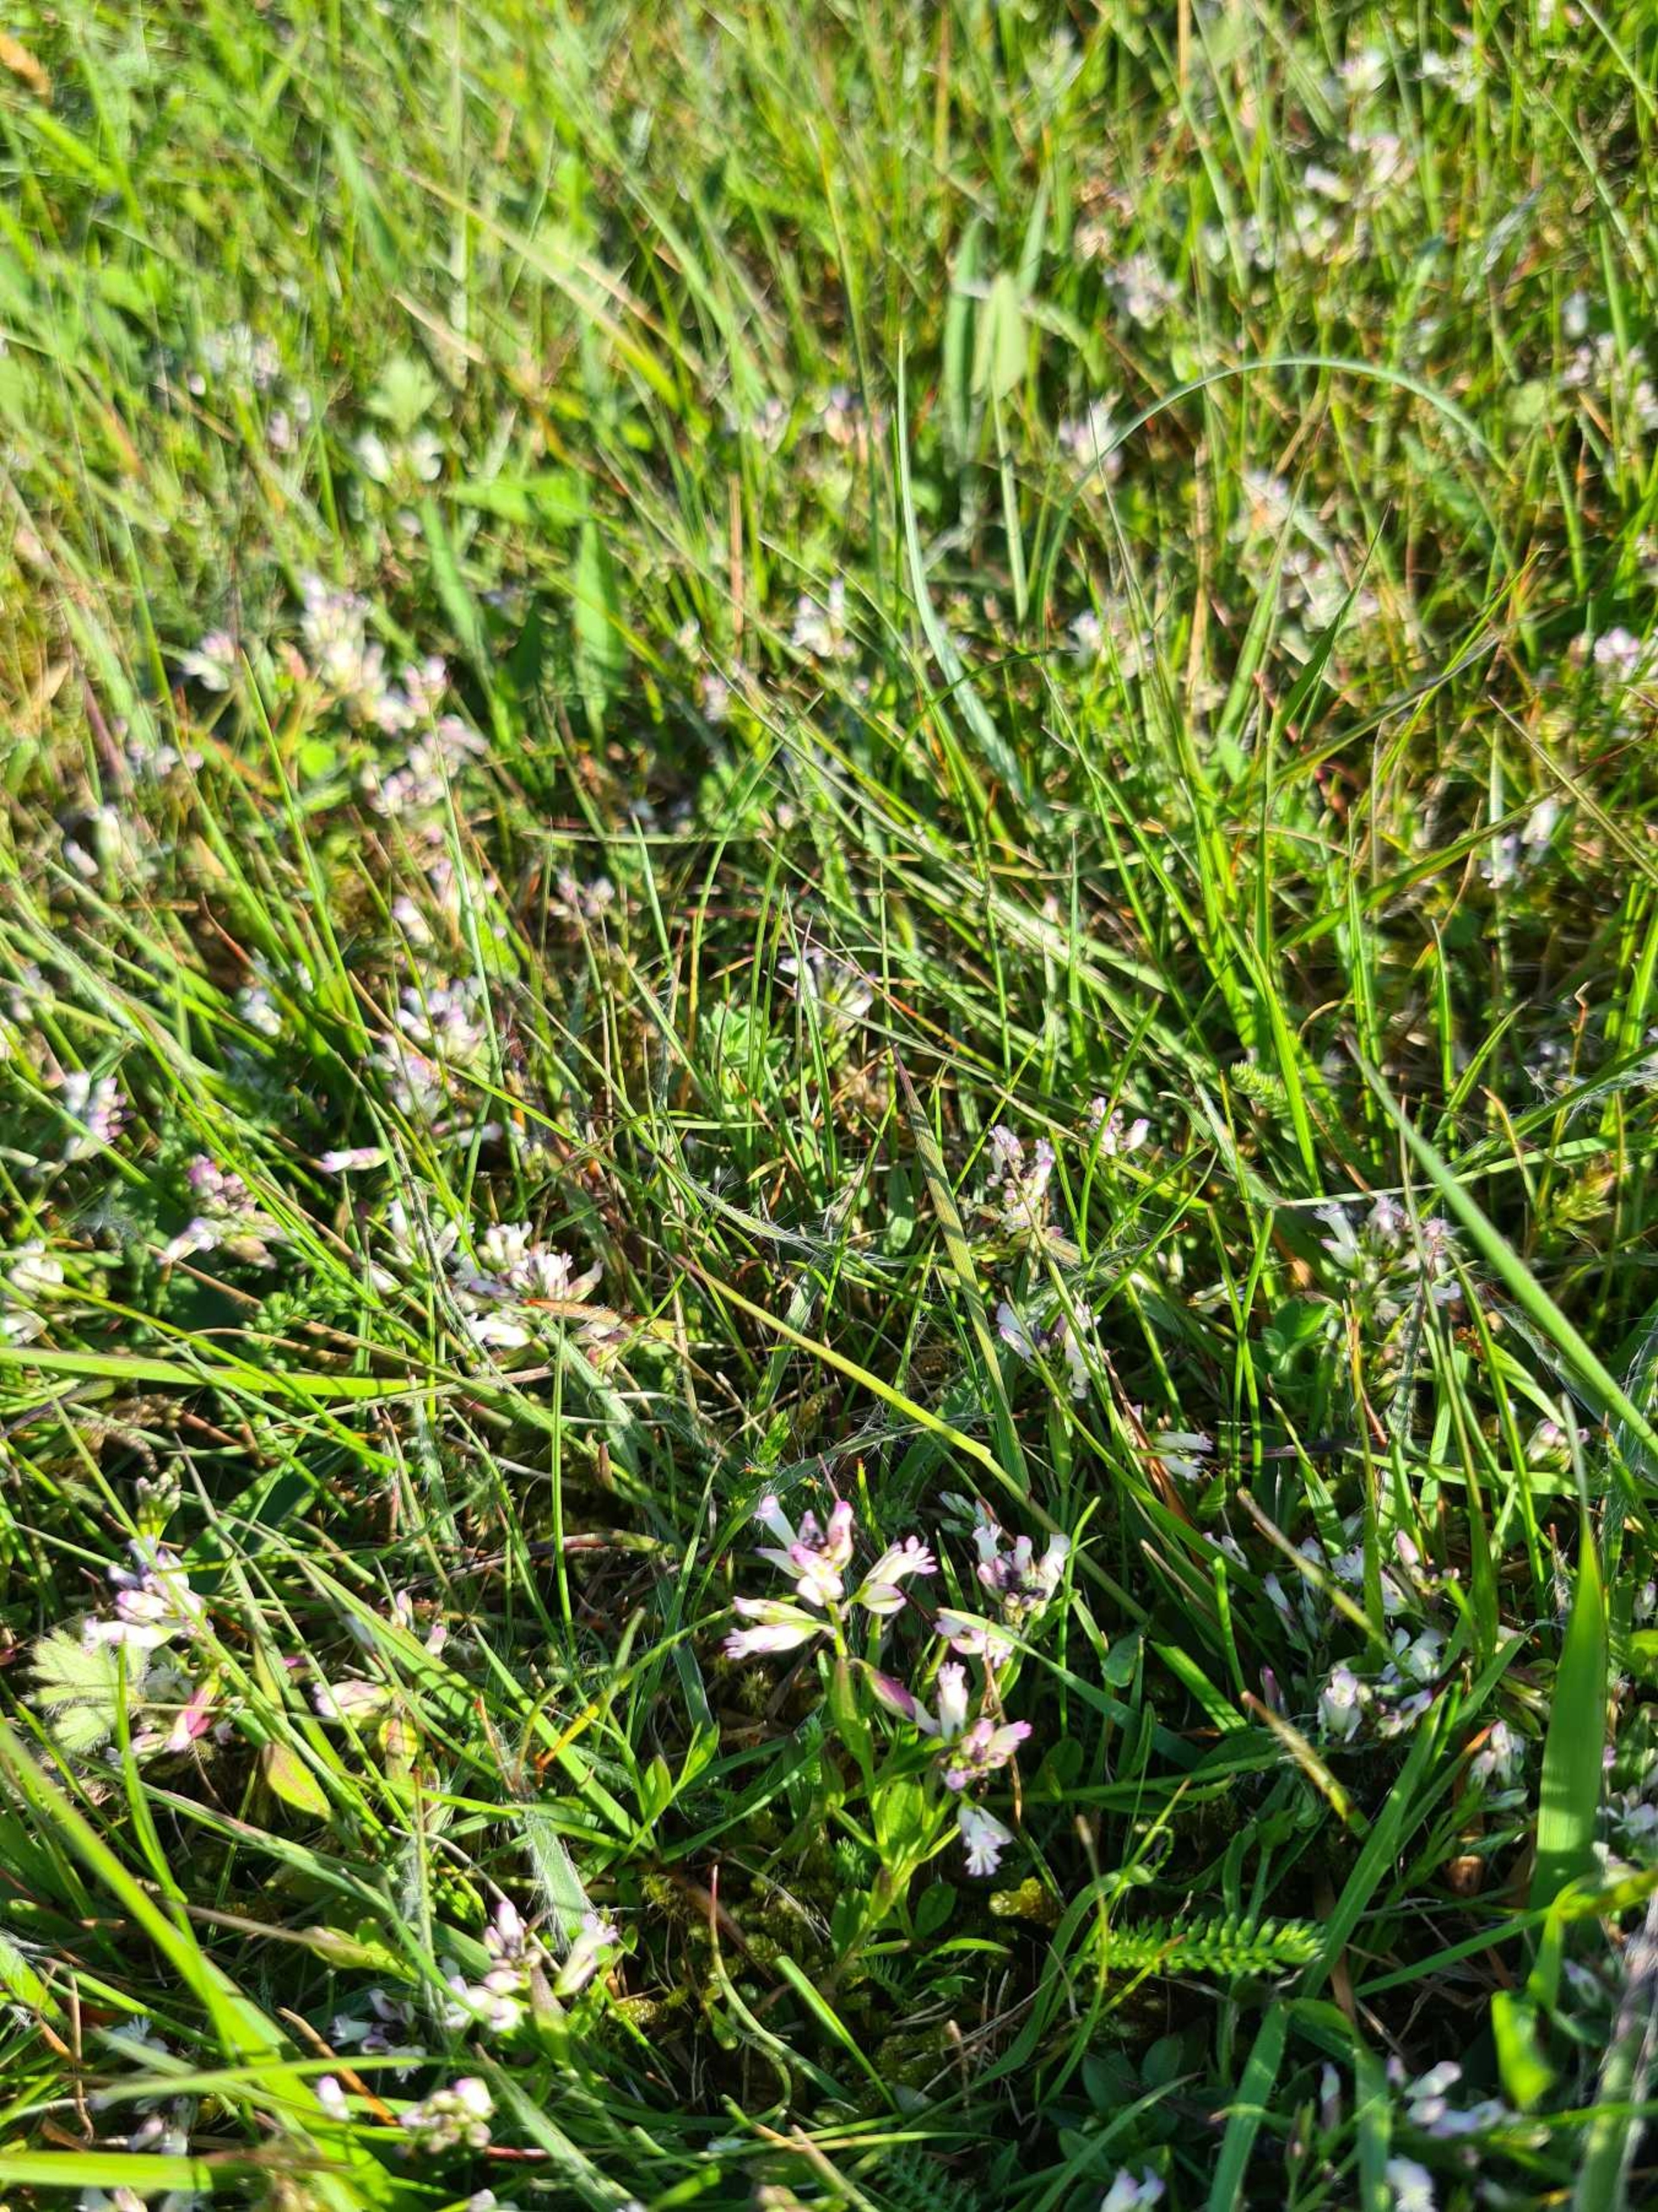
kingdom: Plantae
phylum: Tracheophyta
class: Magnoliopsida
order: Fabales
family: Polygalaceae
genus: Polygala
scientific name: Polygala vulgaris
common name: Almindelig mælkeurt
